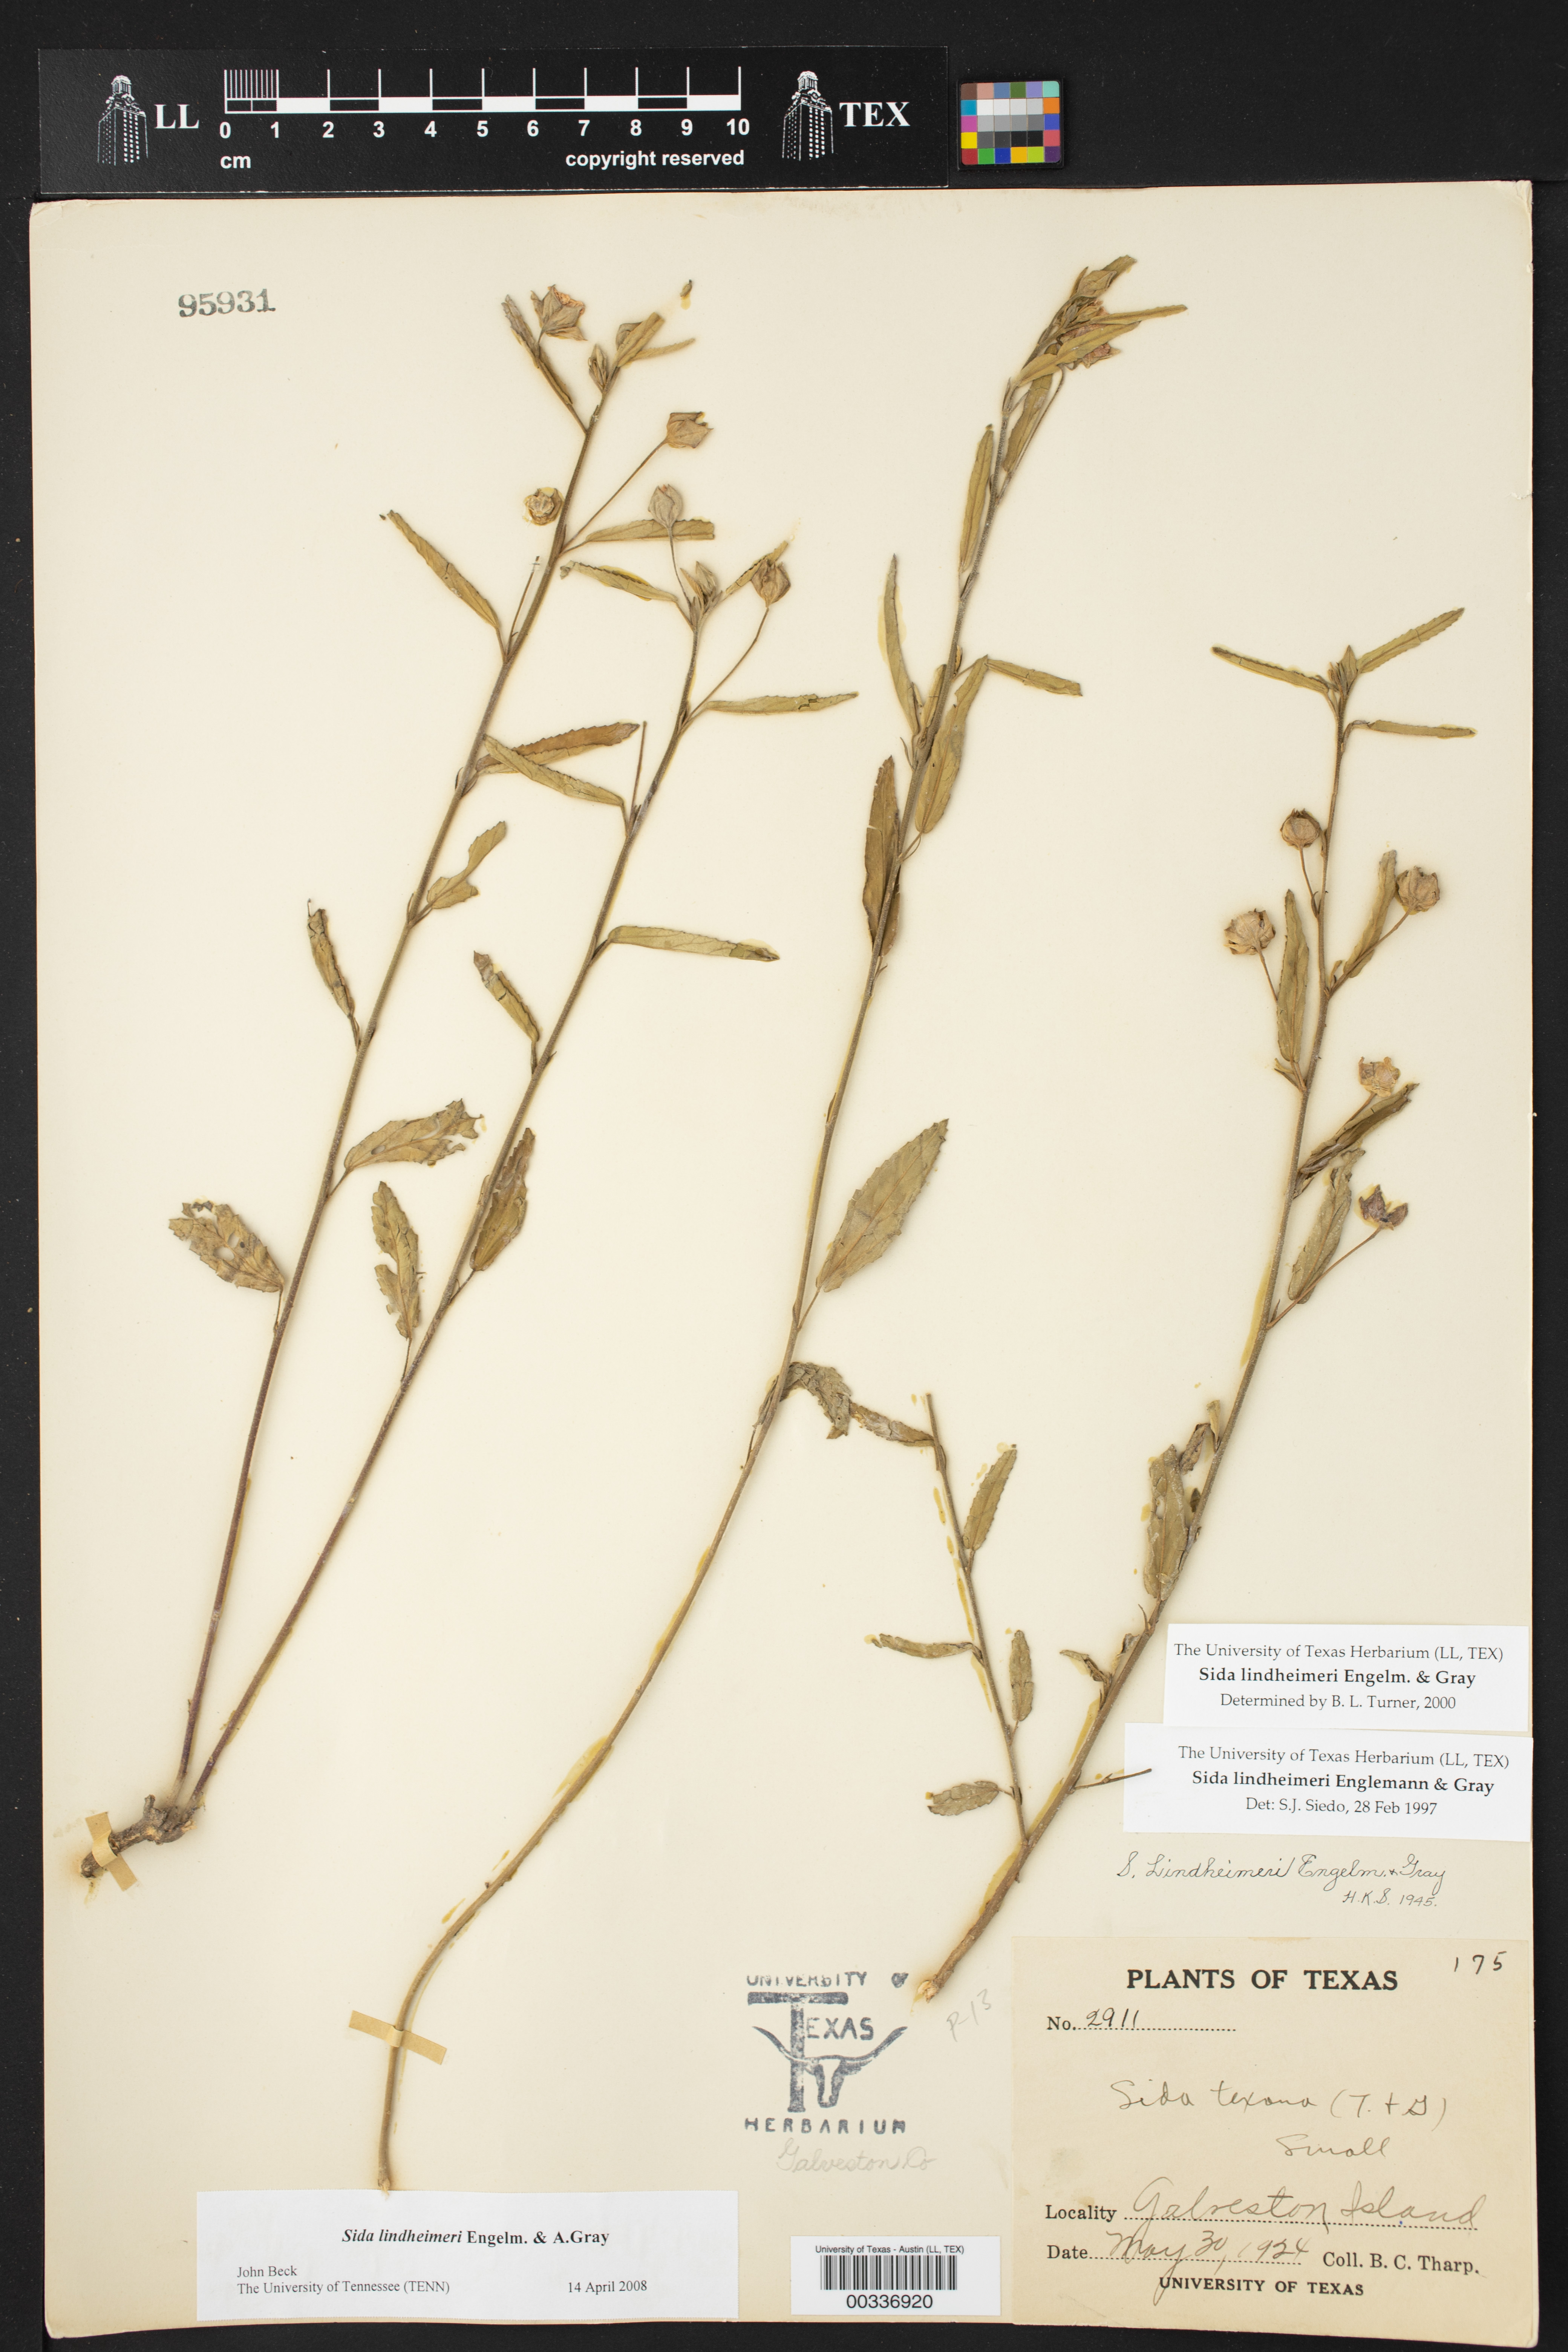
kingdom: Plantae
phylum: Tracheophyta
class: Magnoliopsida
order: Malvales
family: Malvaceae
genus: Sida
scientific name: Sida lindheimeri
